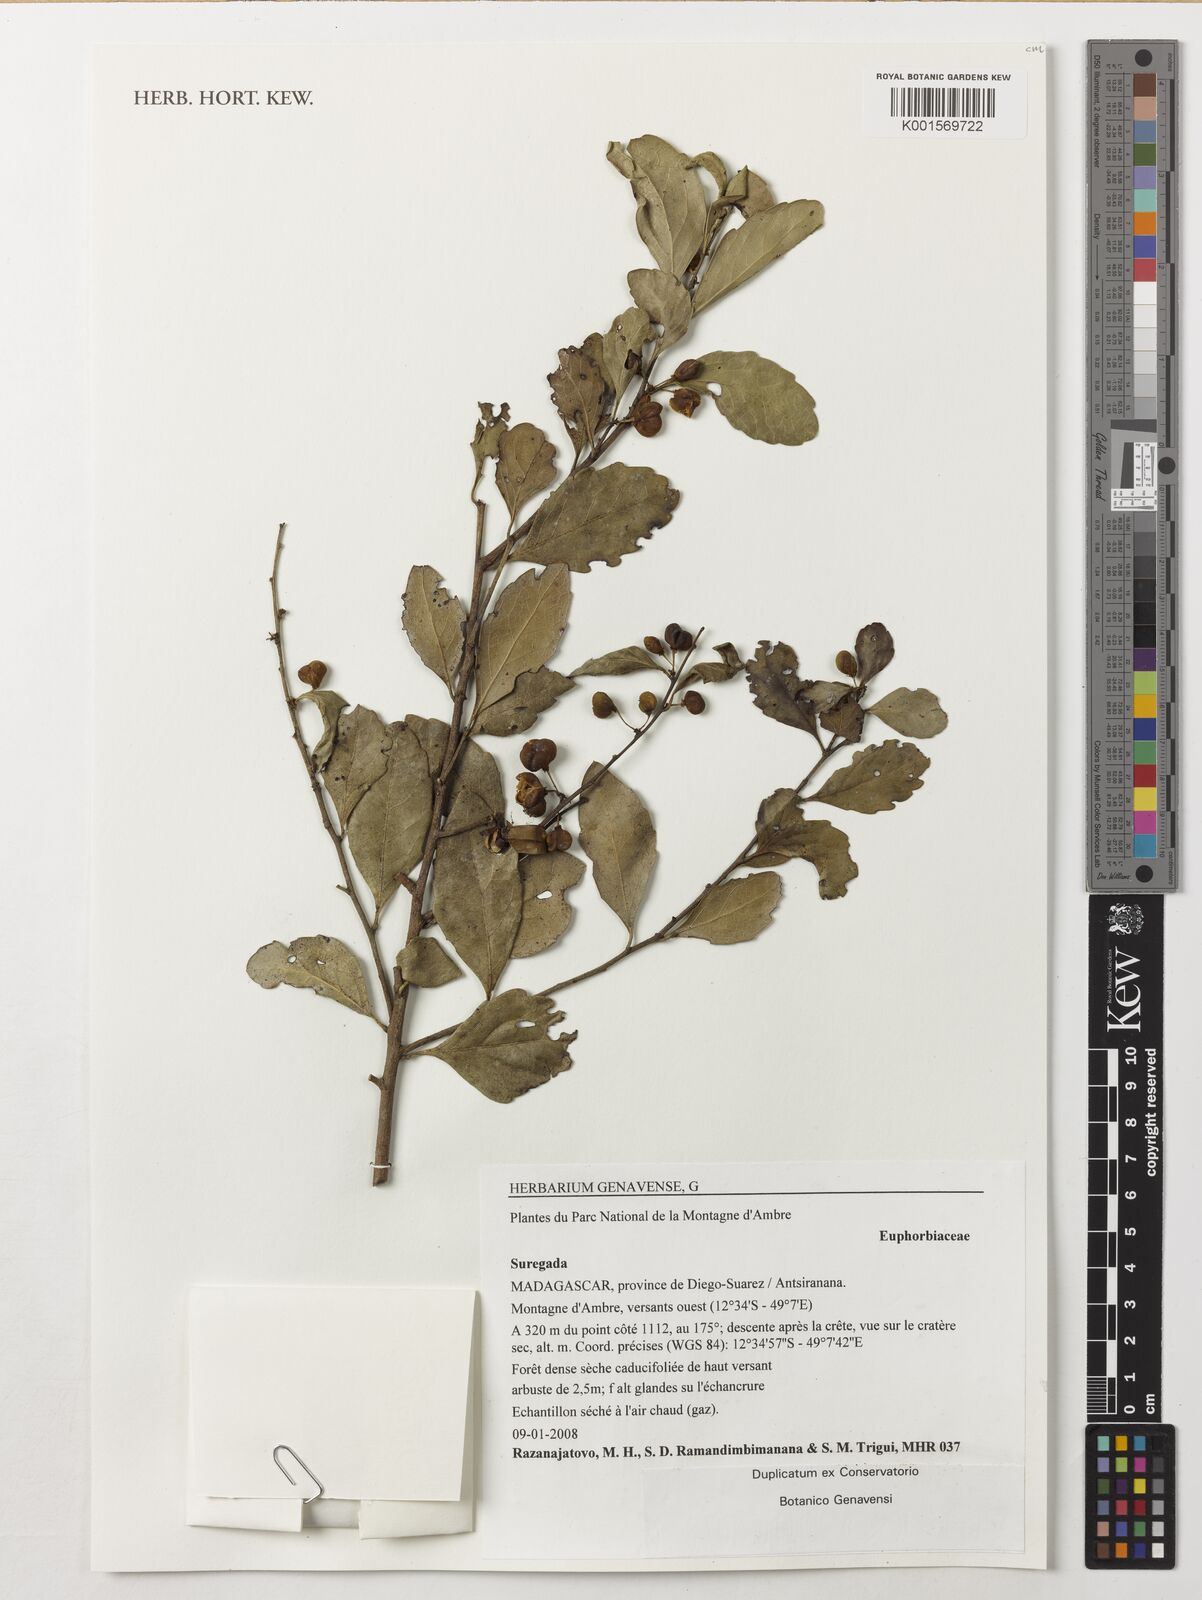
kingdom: Plantae
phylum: Tracheophyta
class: Magnoliopsida
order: Malpighiales
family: Euphorbiaceae
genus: Suregada
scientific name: Suregada
